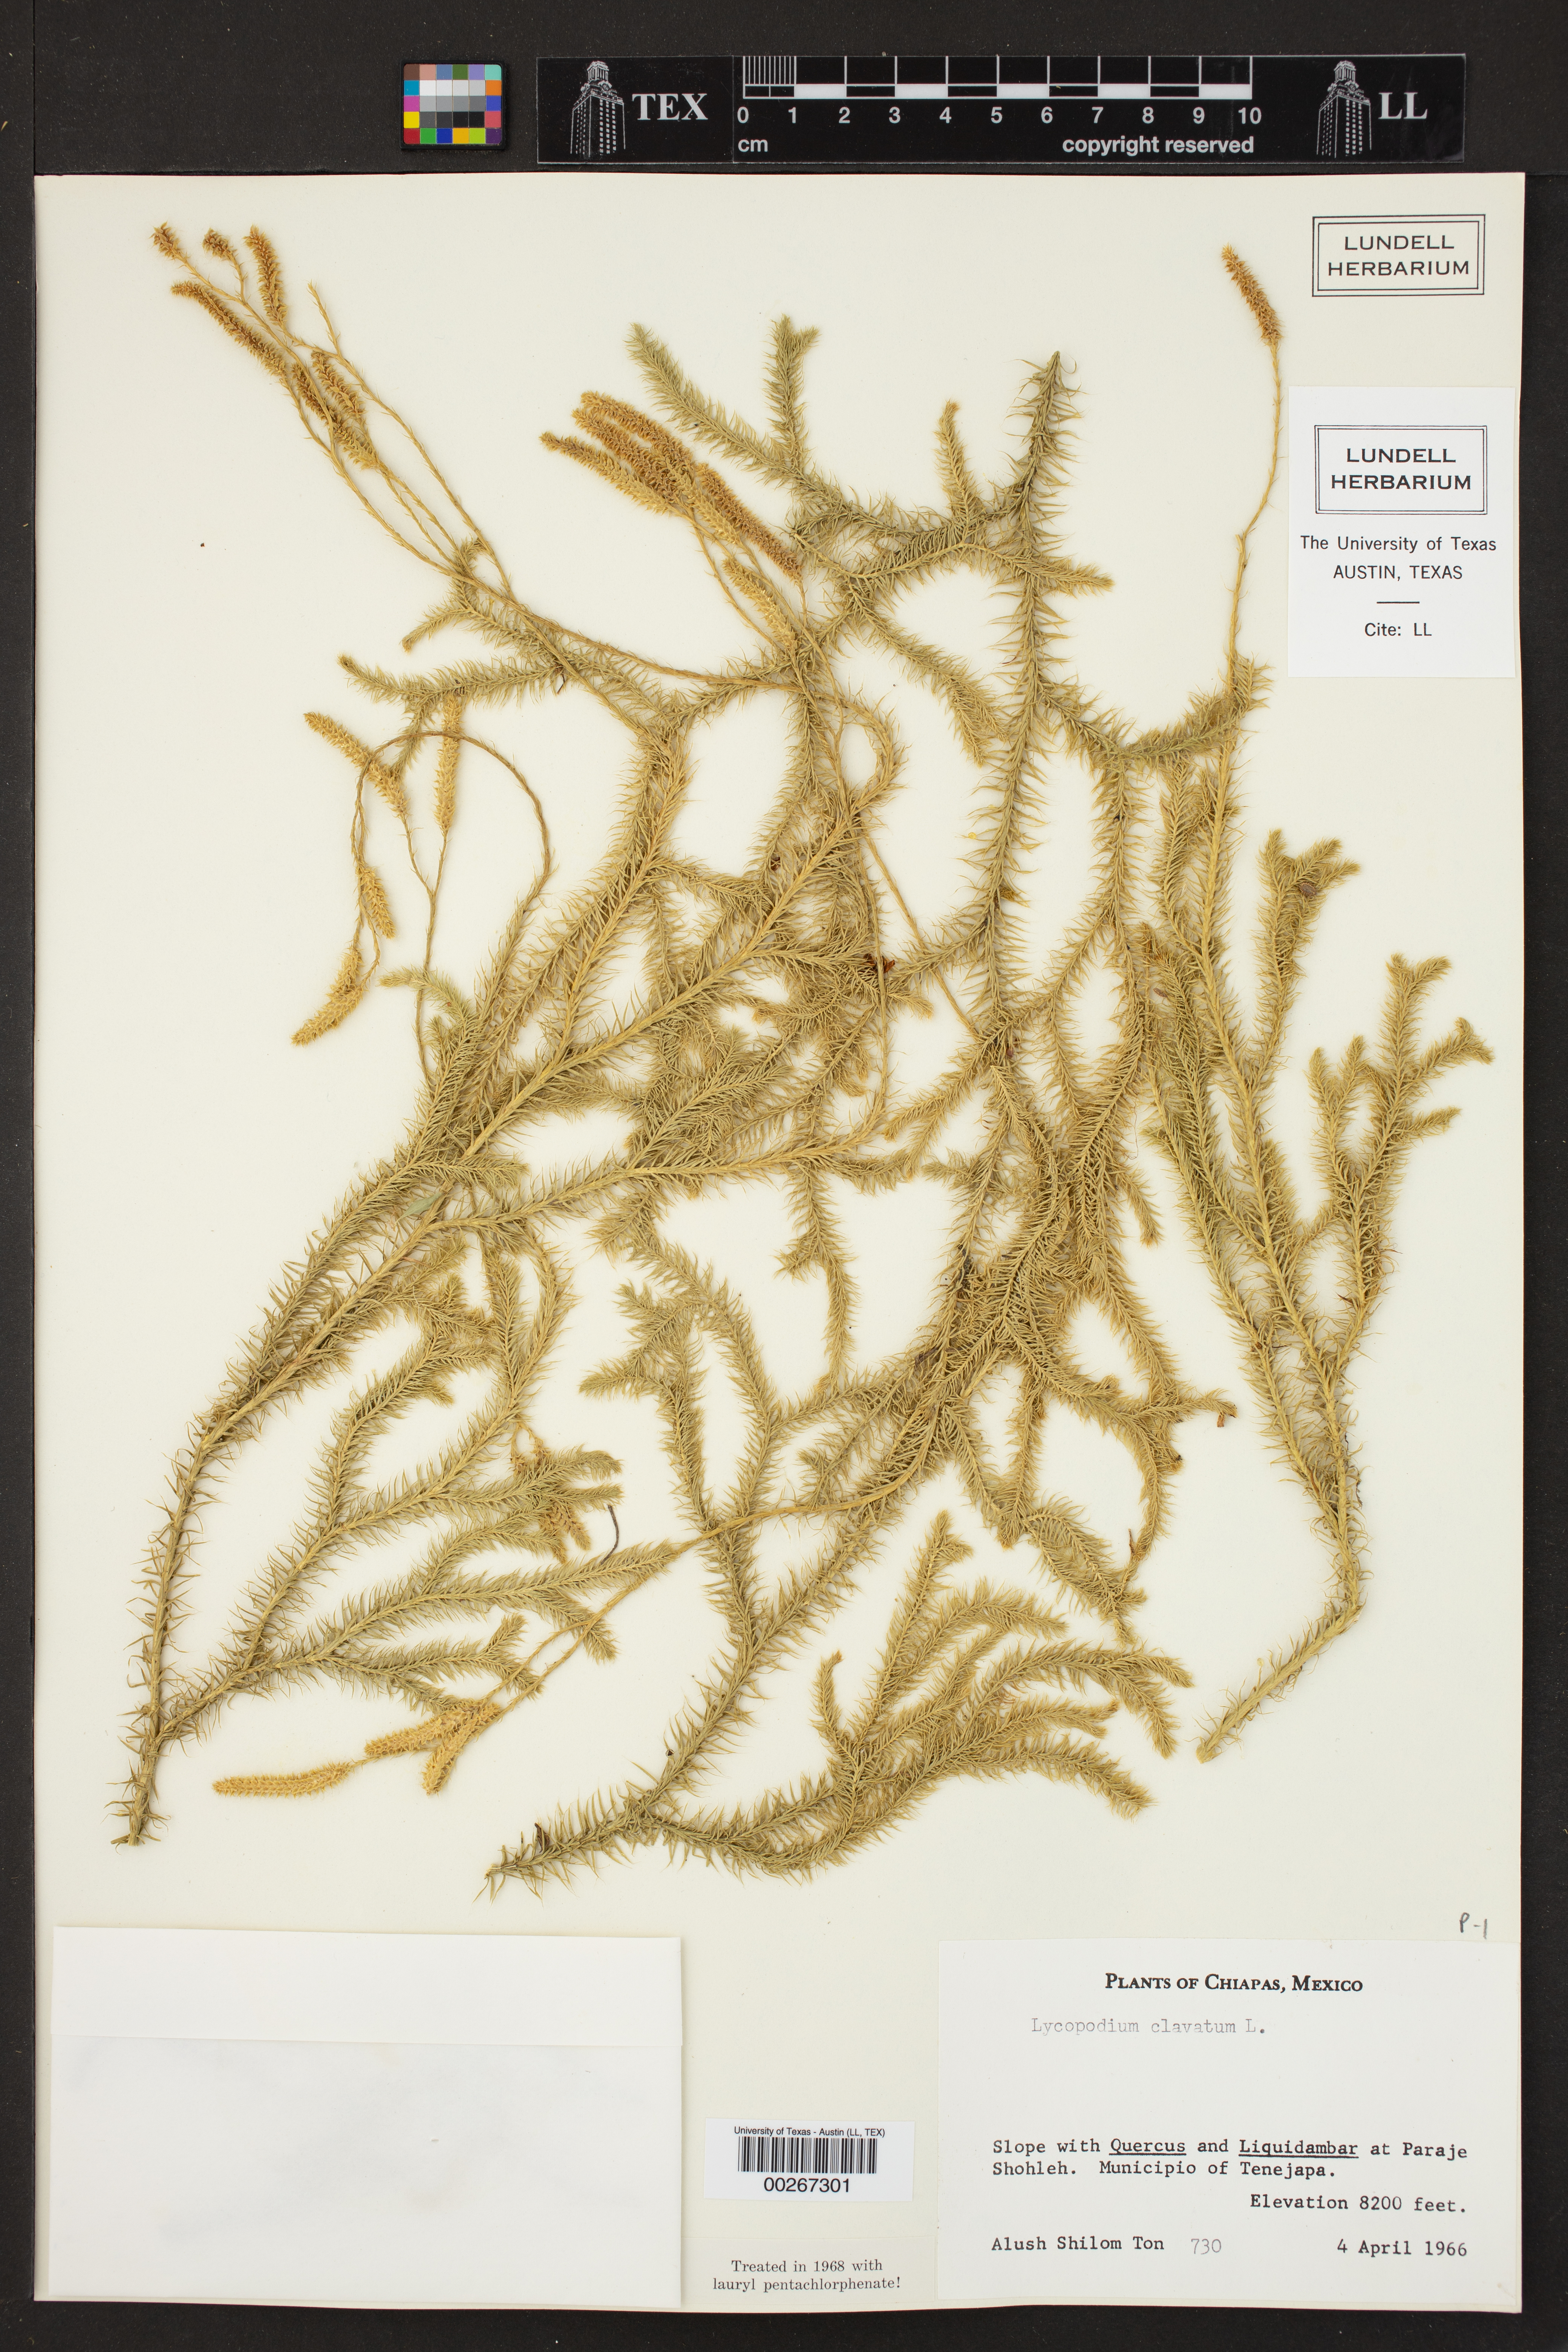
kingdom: Plantae
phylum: Tracheophyta
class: Lycopodiopsida
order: Lycopodiales
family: Lycopodiaceae
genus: Lycopodium
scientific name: Lycopodium clavatum
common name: Stag's-horn clubmoss
